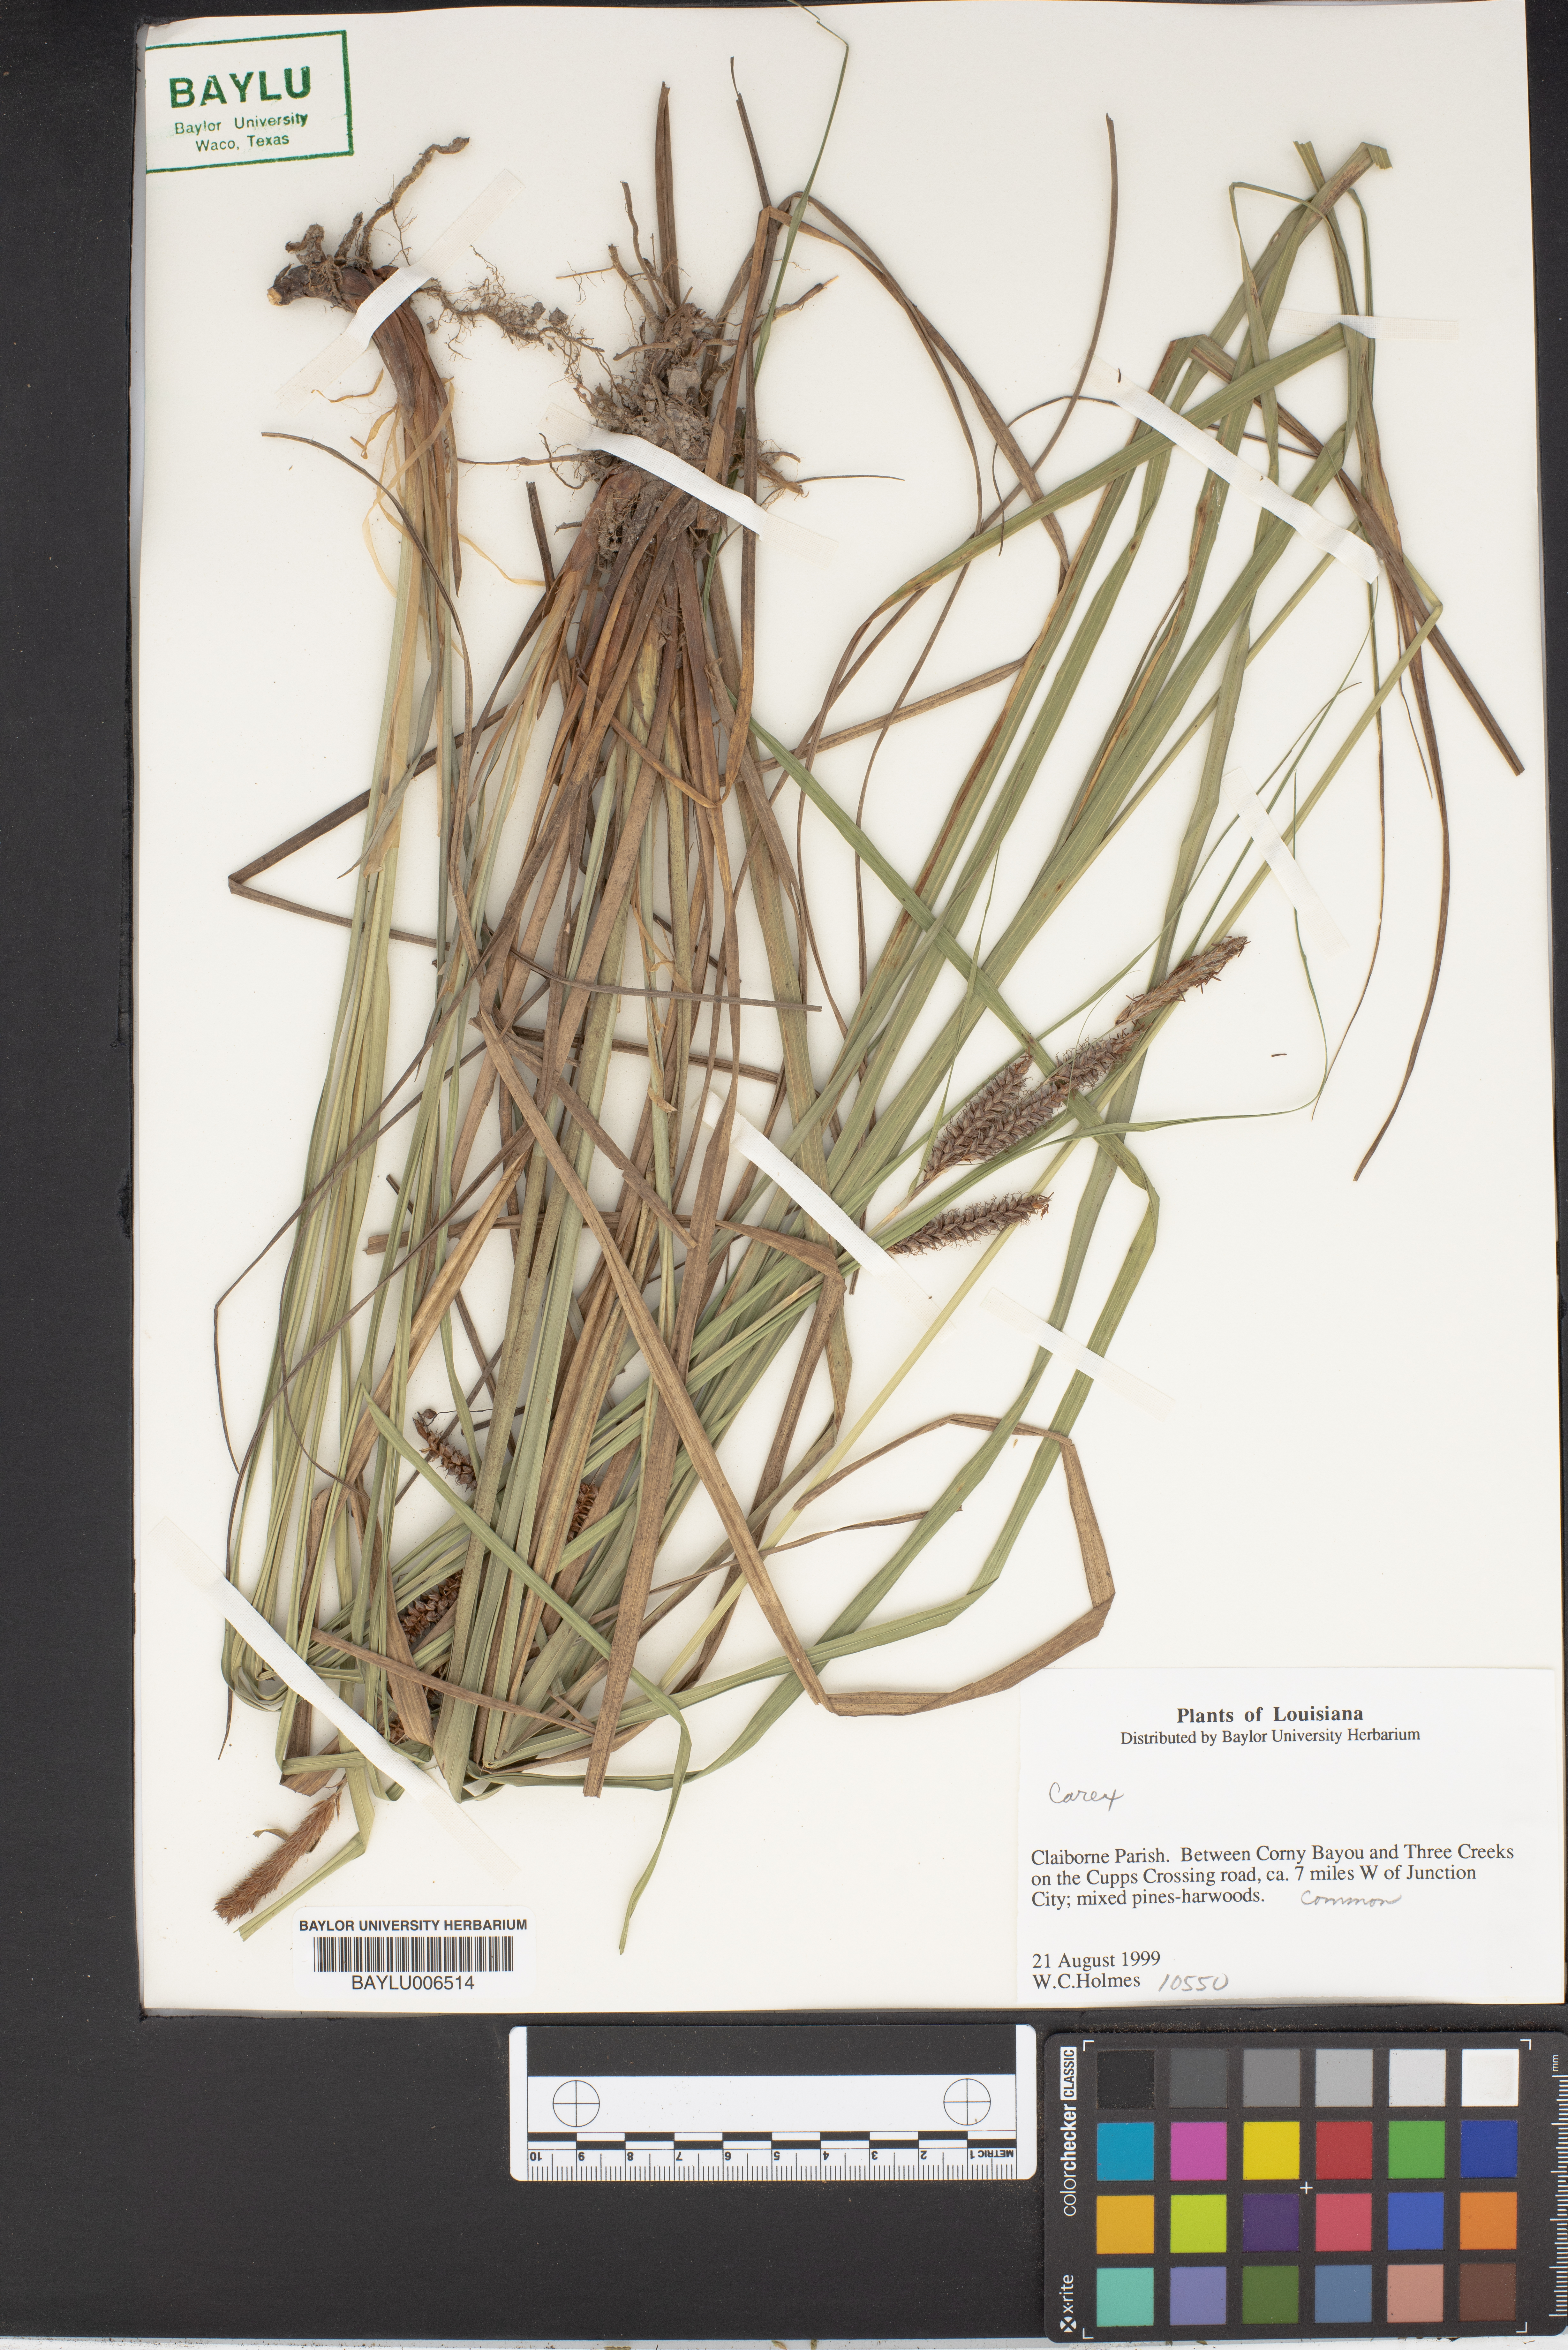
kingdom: Plantae
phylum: Tracheophyta
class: Liliopsida
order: Poales
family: Cyperaceae
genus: Carex
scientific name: Carex
